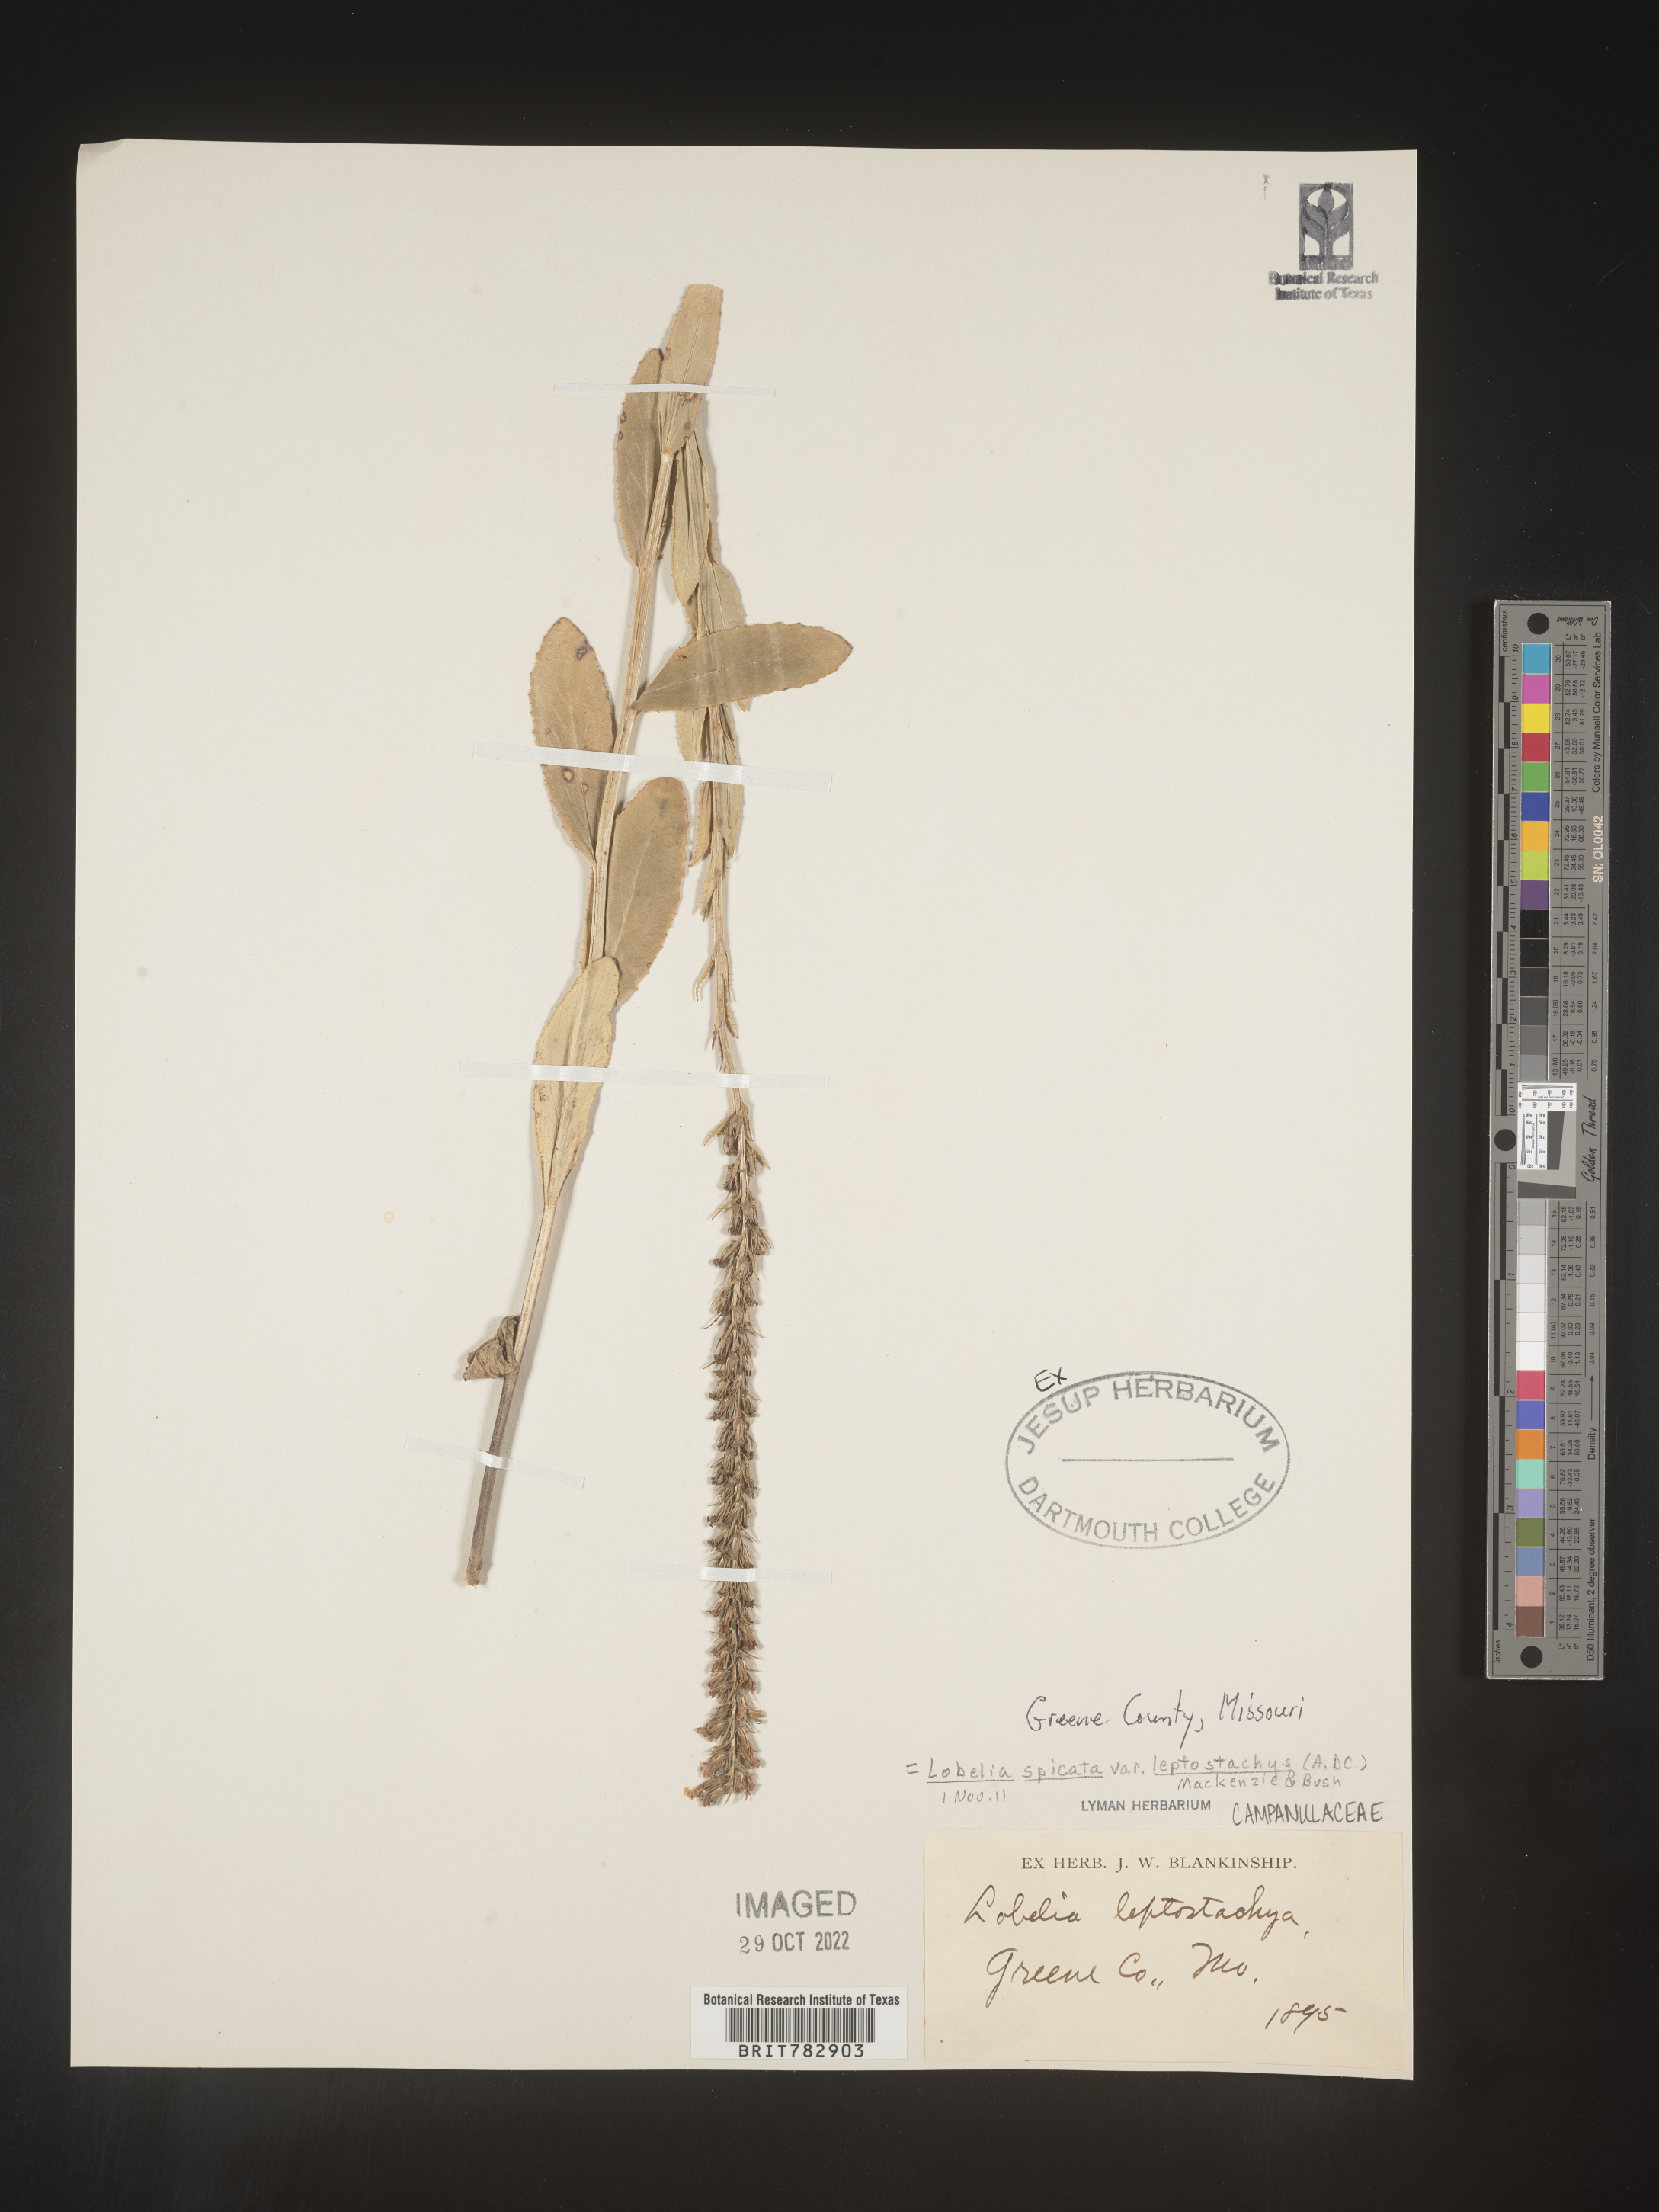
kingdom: Plantae
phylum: Tracheophyta
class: Magnoliopsida
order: Asterales
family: Campanulaceae
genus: Lobelia
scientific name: Lobelia spicata
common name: Pale-spike lobelia
